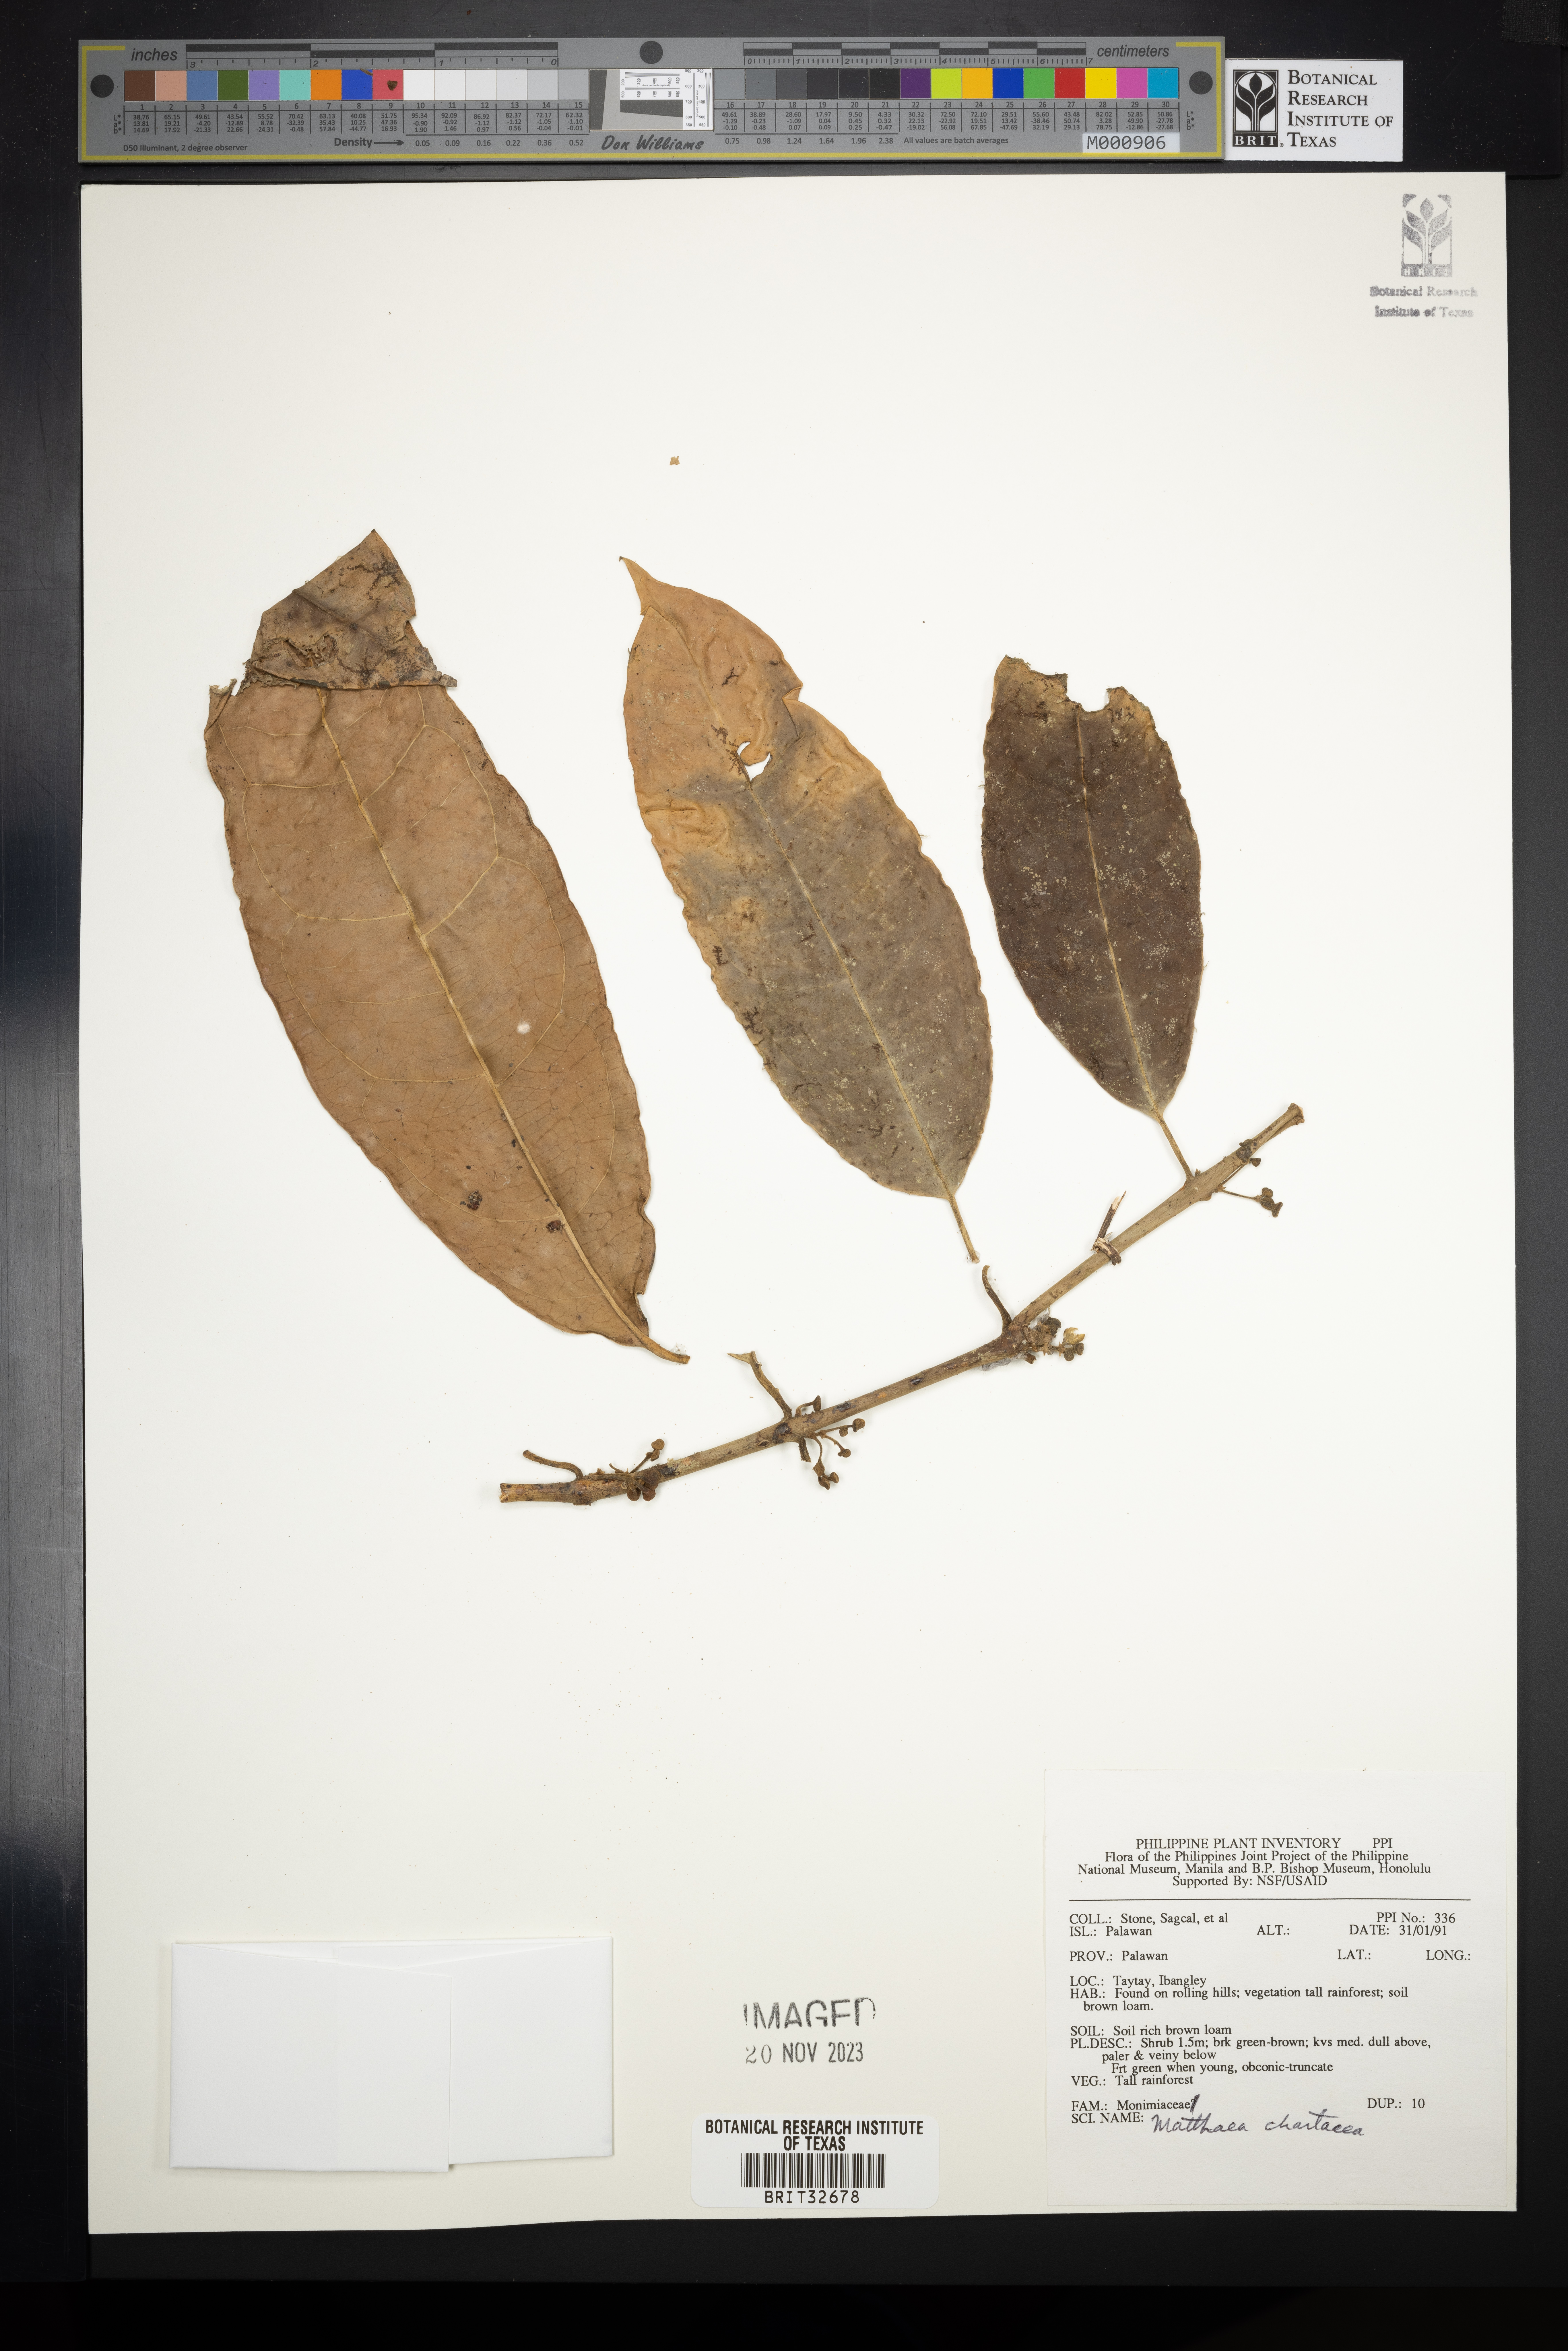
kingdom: Plantae
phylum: Tracheophyta
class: Magnoliopsida
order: Laurales
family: Monimiaceae
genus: Matthaea
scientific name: Matthaea chartacea
